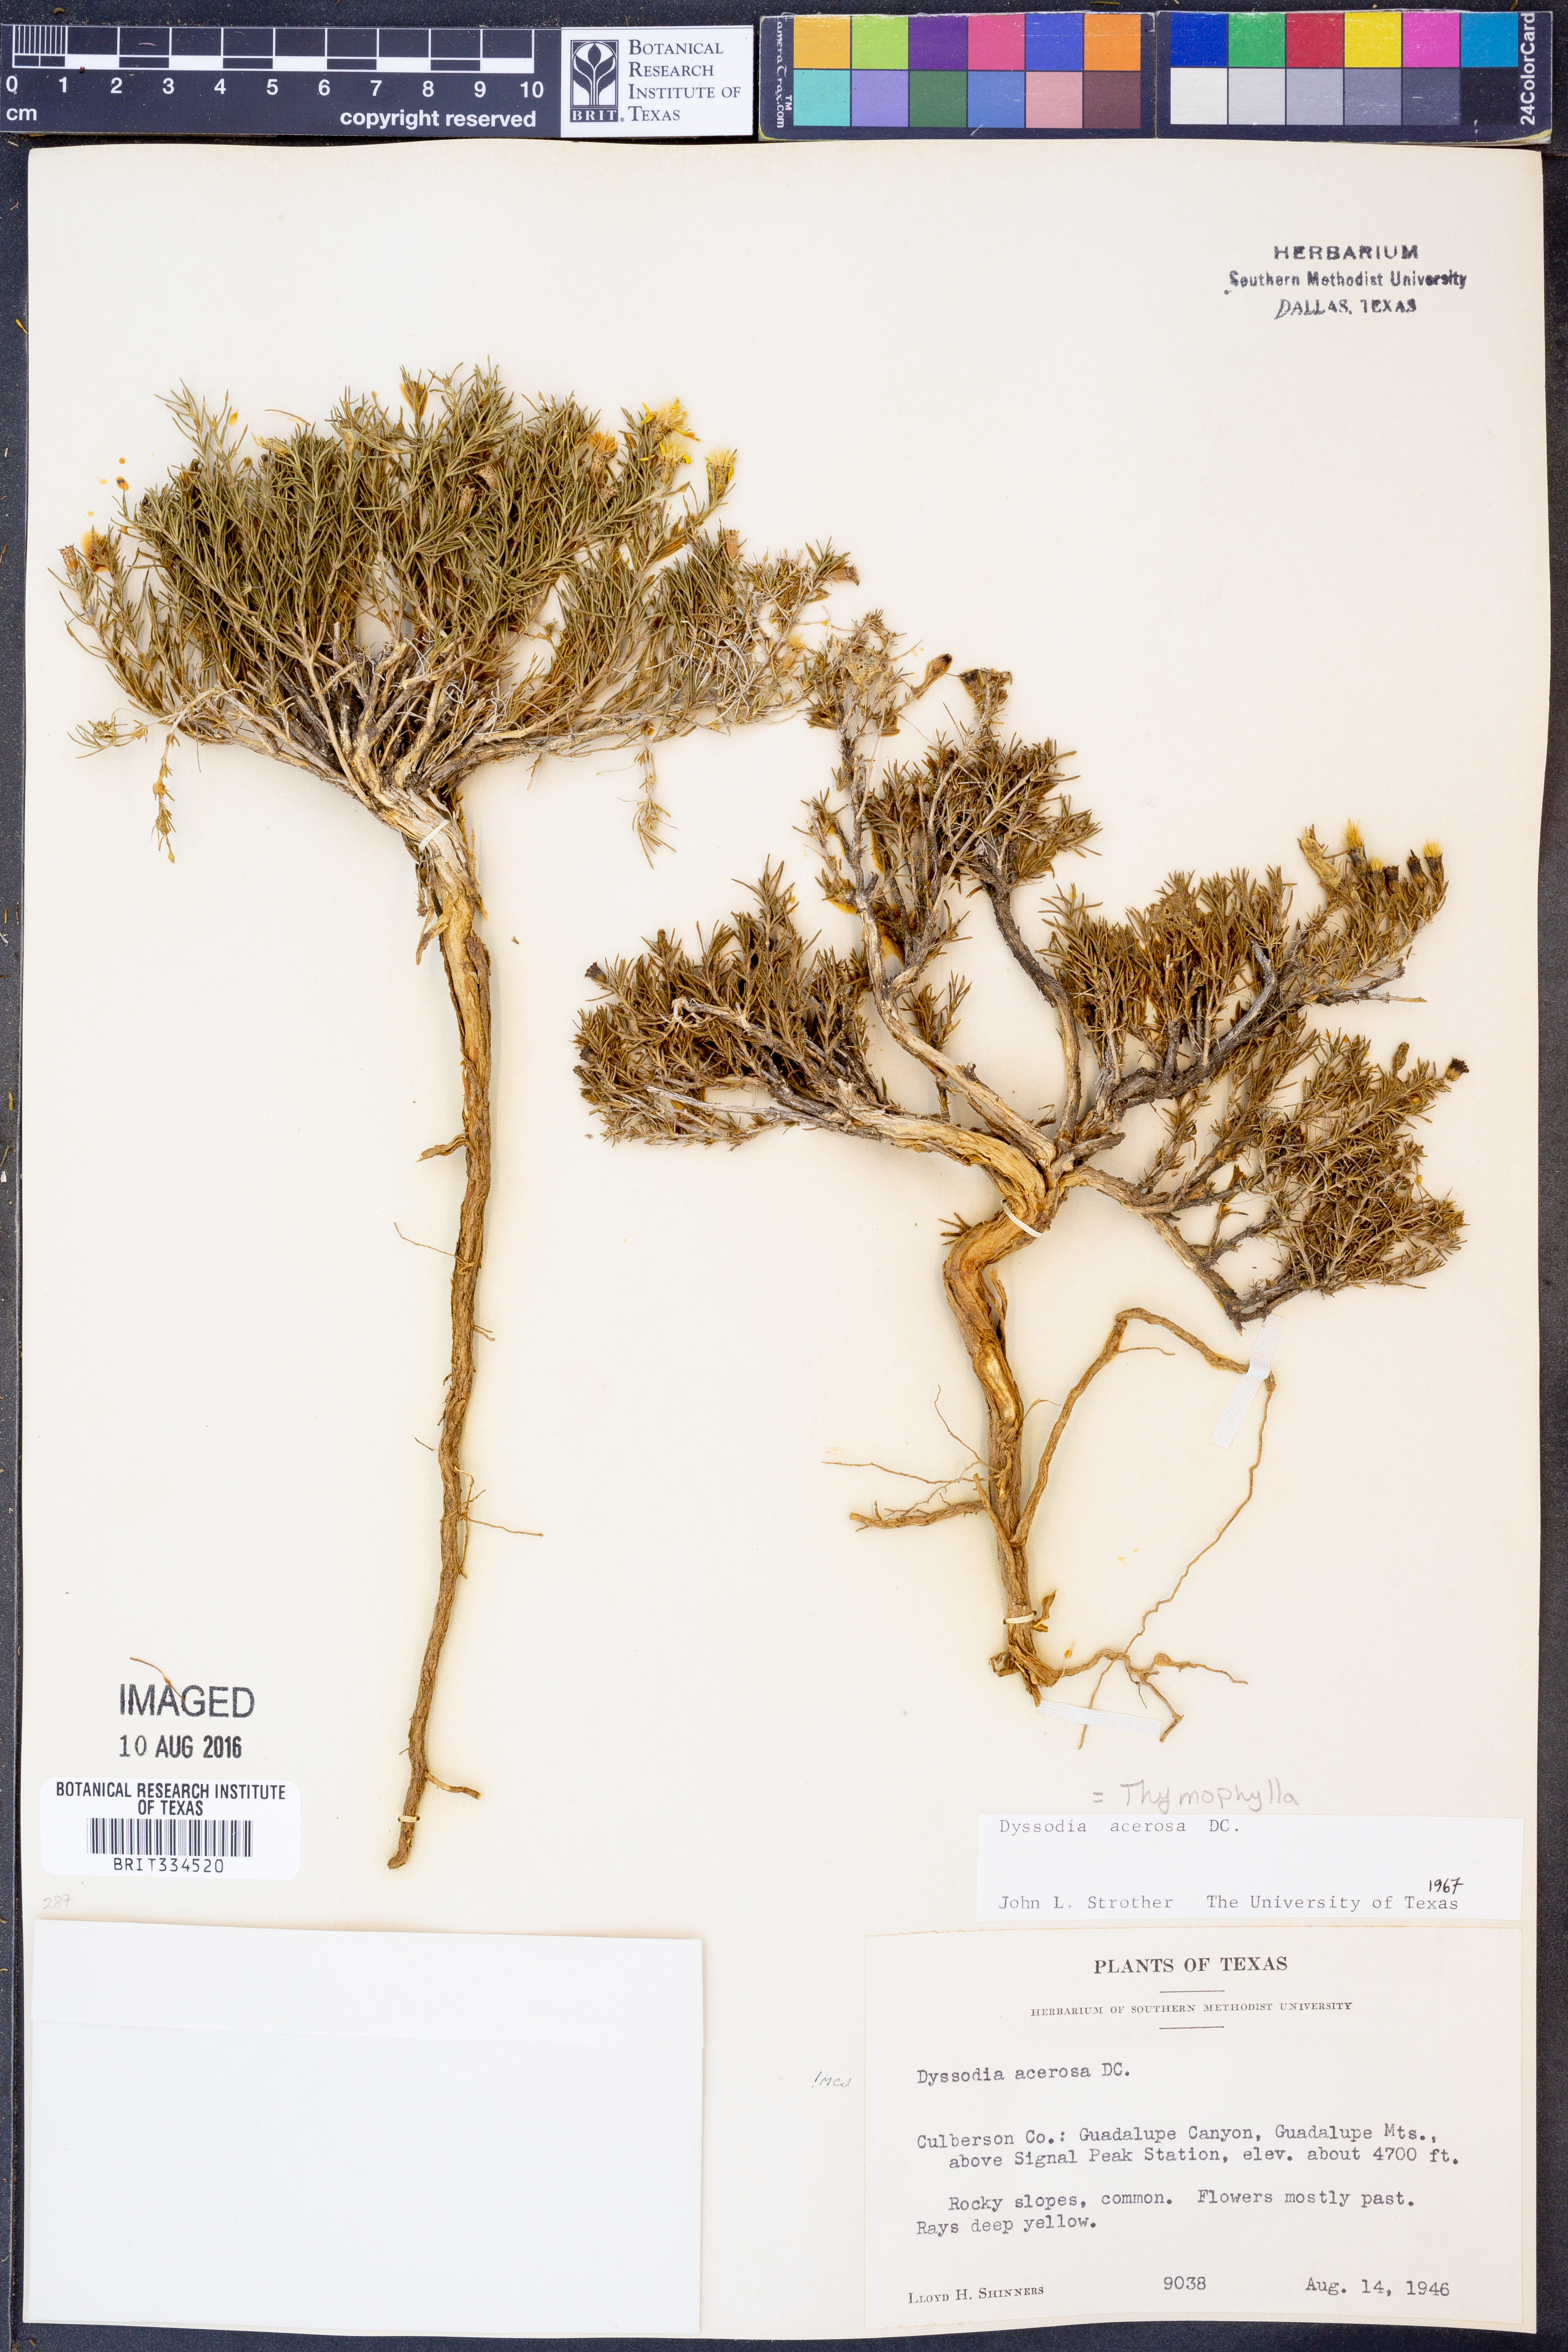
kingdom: Plantae
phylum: Tracheophyta
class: Magnoliopsida
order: Asterales
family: Asteraceae
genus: Thymophylla
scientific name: Thymophylla acerosa
